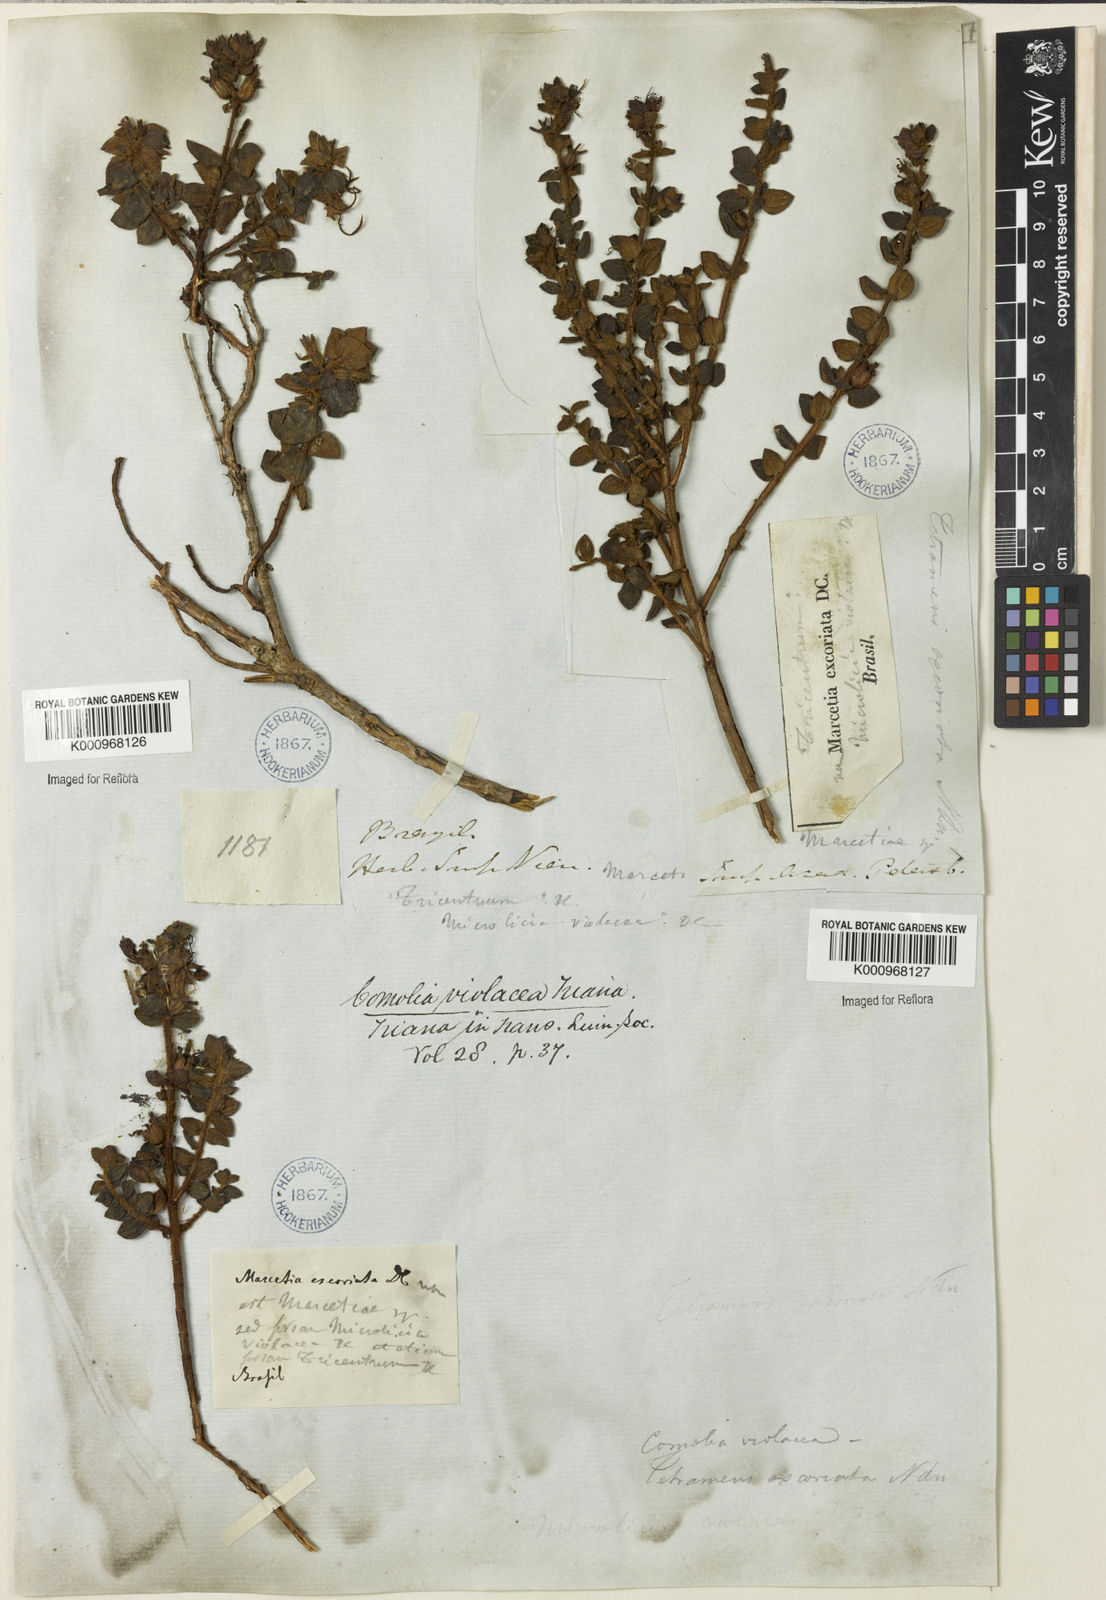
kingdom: Plantae
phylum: Tracheophyta
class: Magnoliopsida
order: Myrtales
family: Melastomataceae
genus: Fritzschia
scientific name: Fritzschia sessilis
